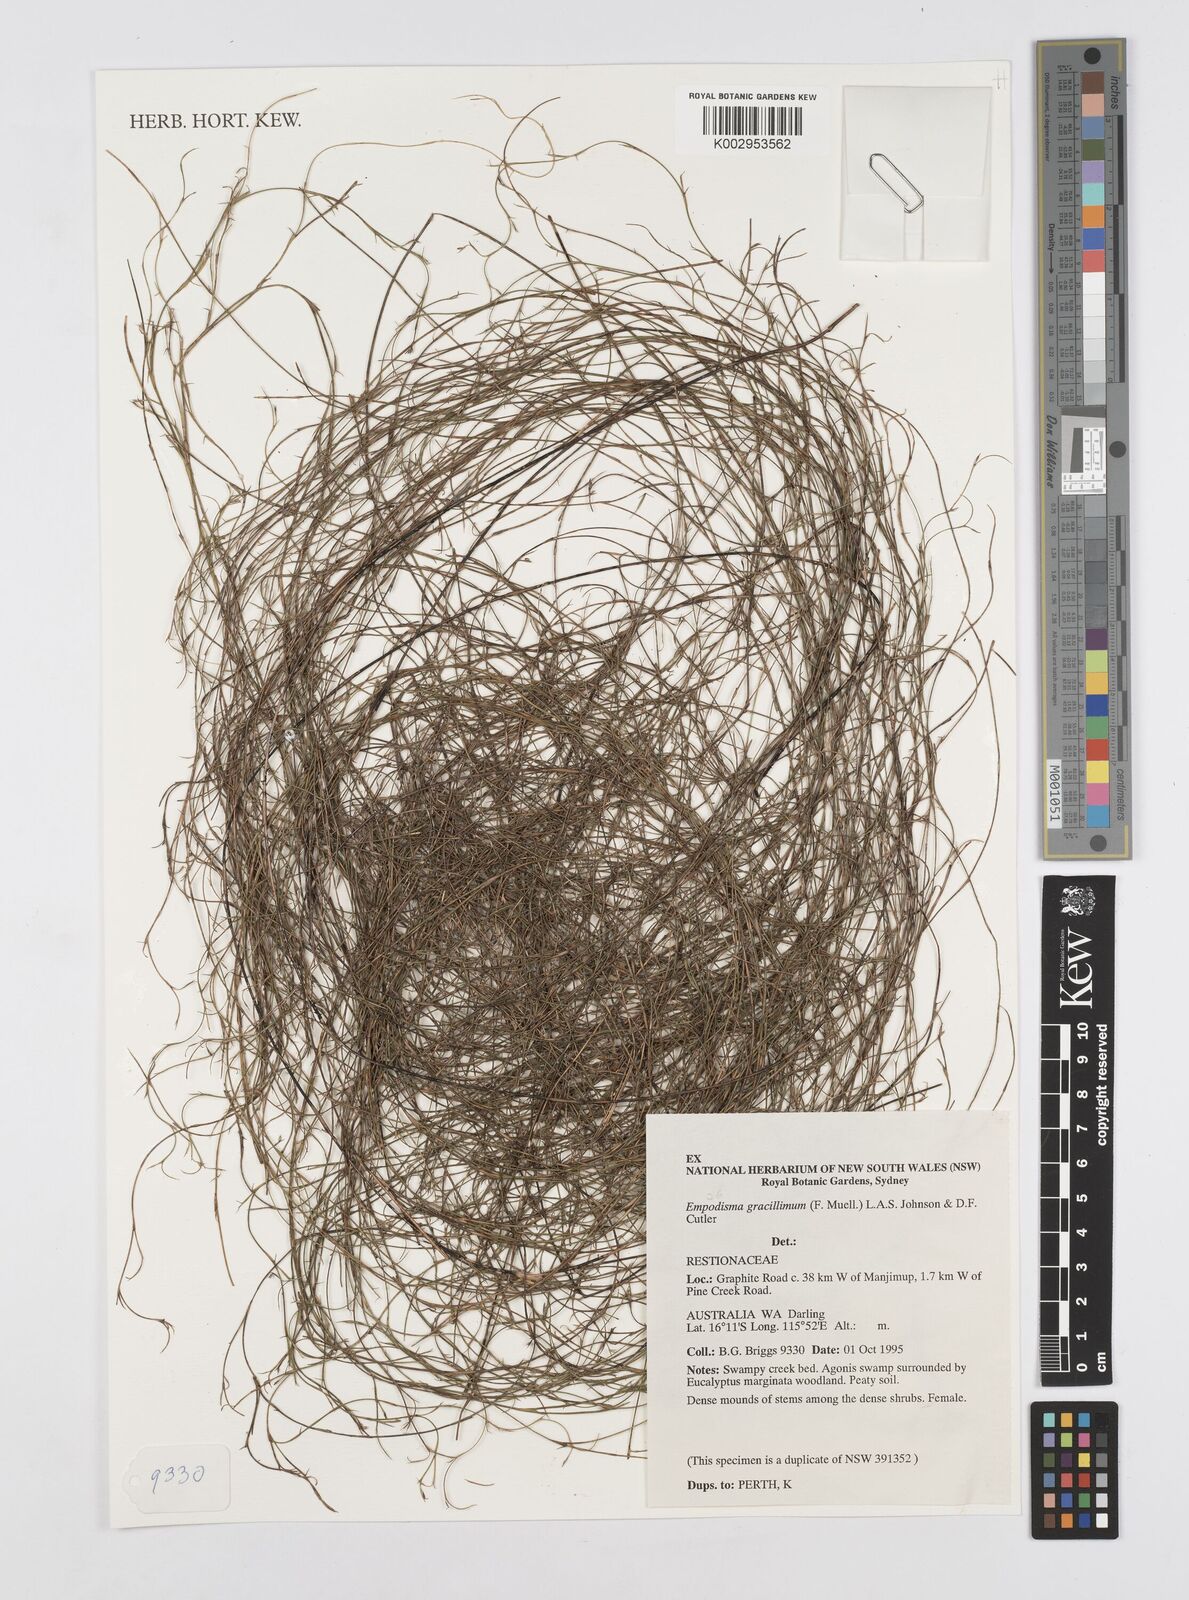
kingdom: Plantae
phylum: Tracheophyta
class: Liliopsida
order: Poales
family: Restionaceae
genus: Empodisma
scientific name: Empodisma gracillimum
